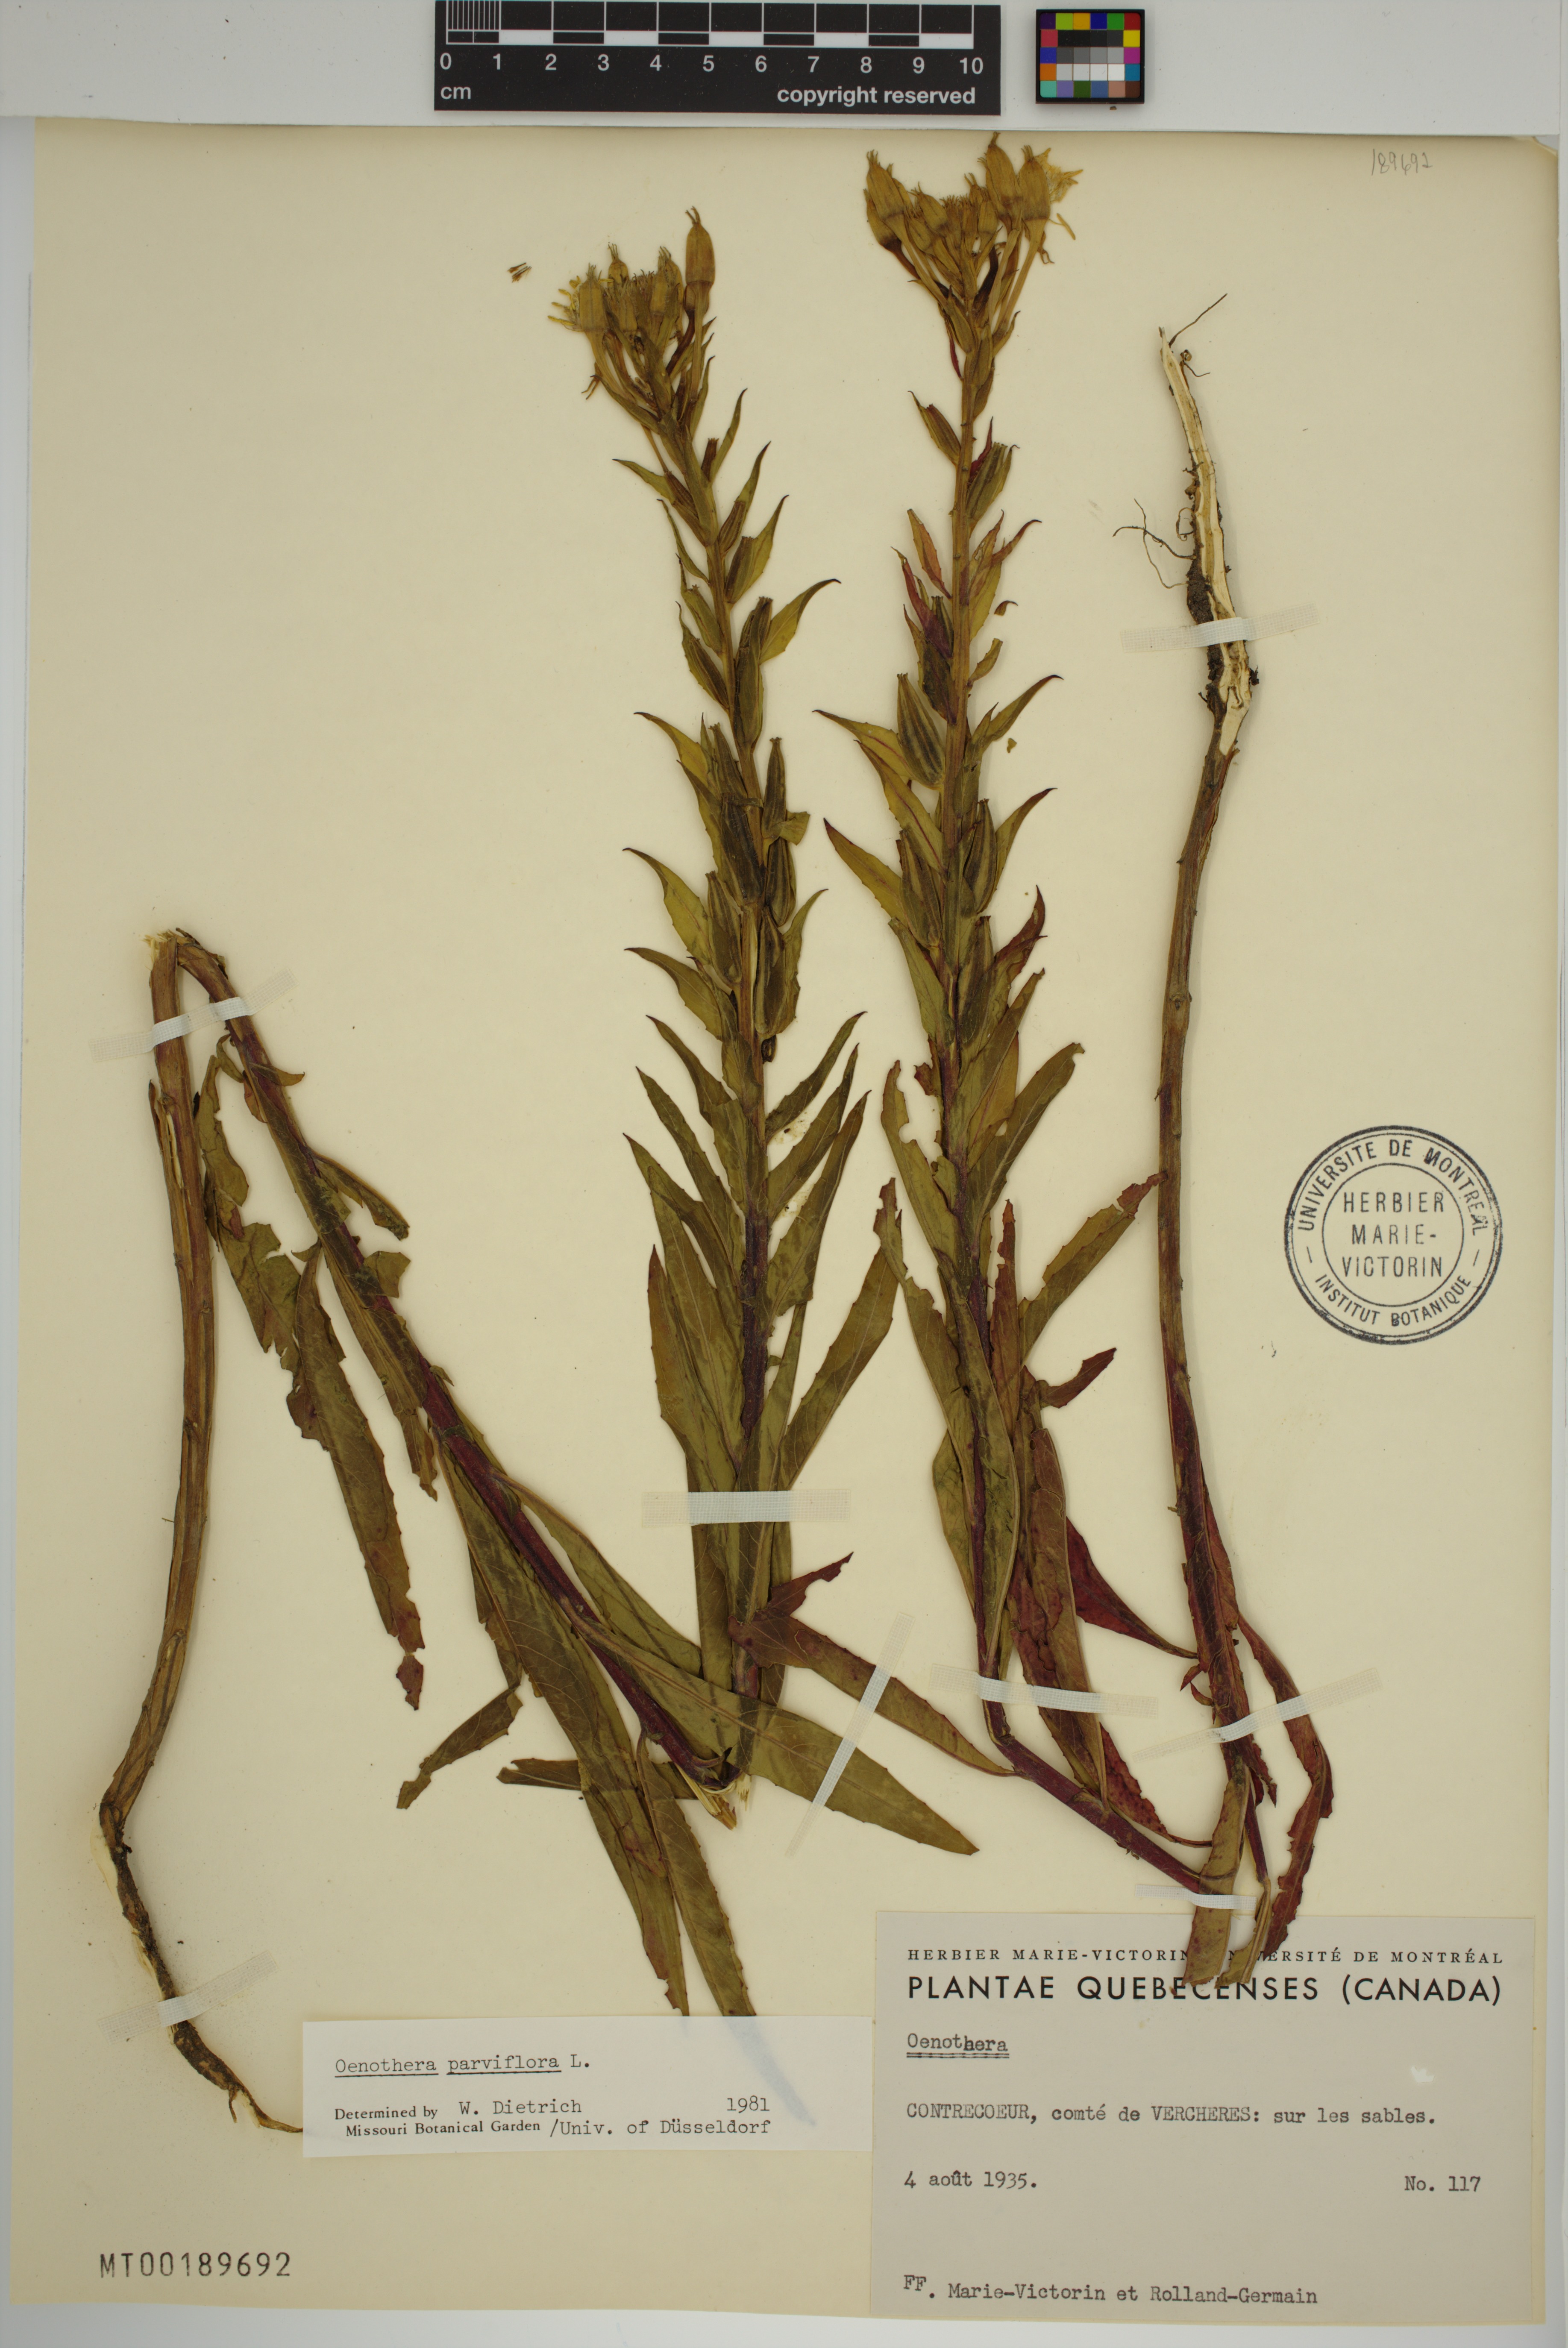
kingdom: Plantae
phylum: Tracheophyta
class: Magnoliopsida
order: Myrtales
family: Onagraceae
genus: Oenothera
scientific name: Oenothera parviflora
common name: Least evening-primrose
